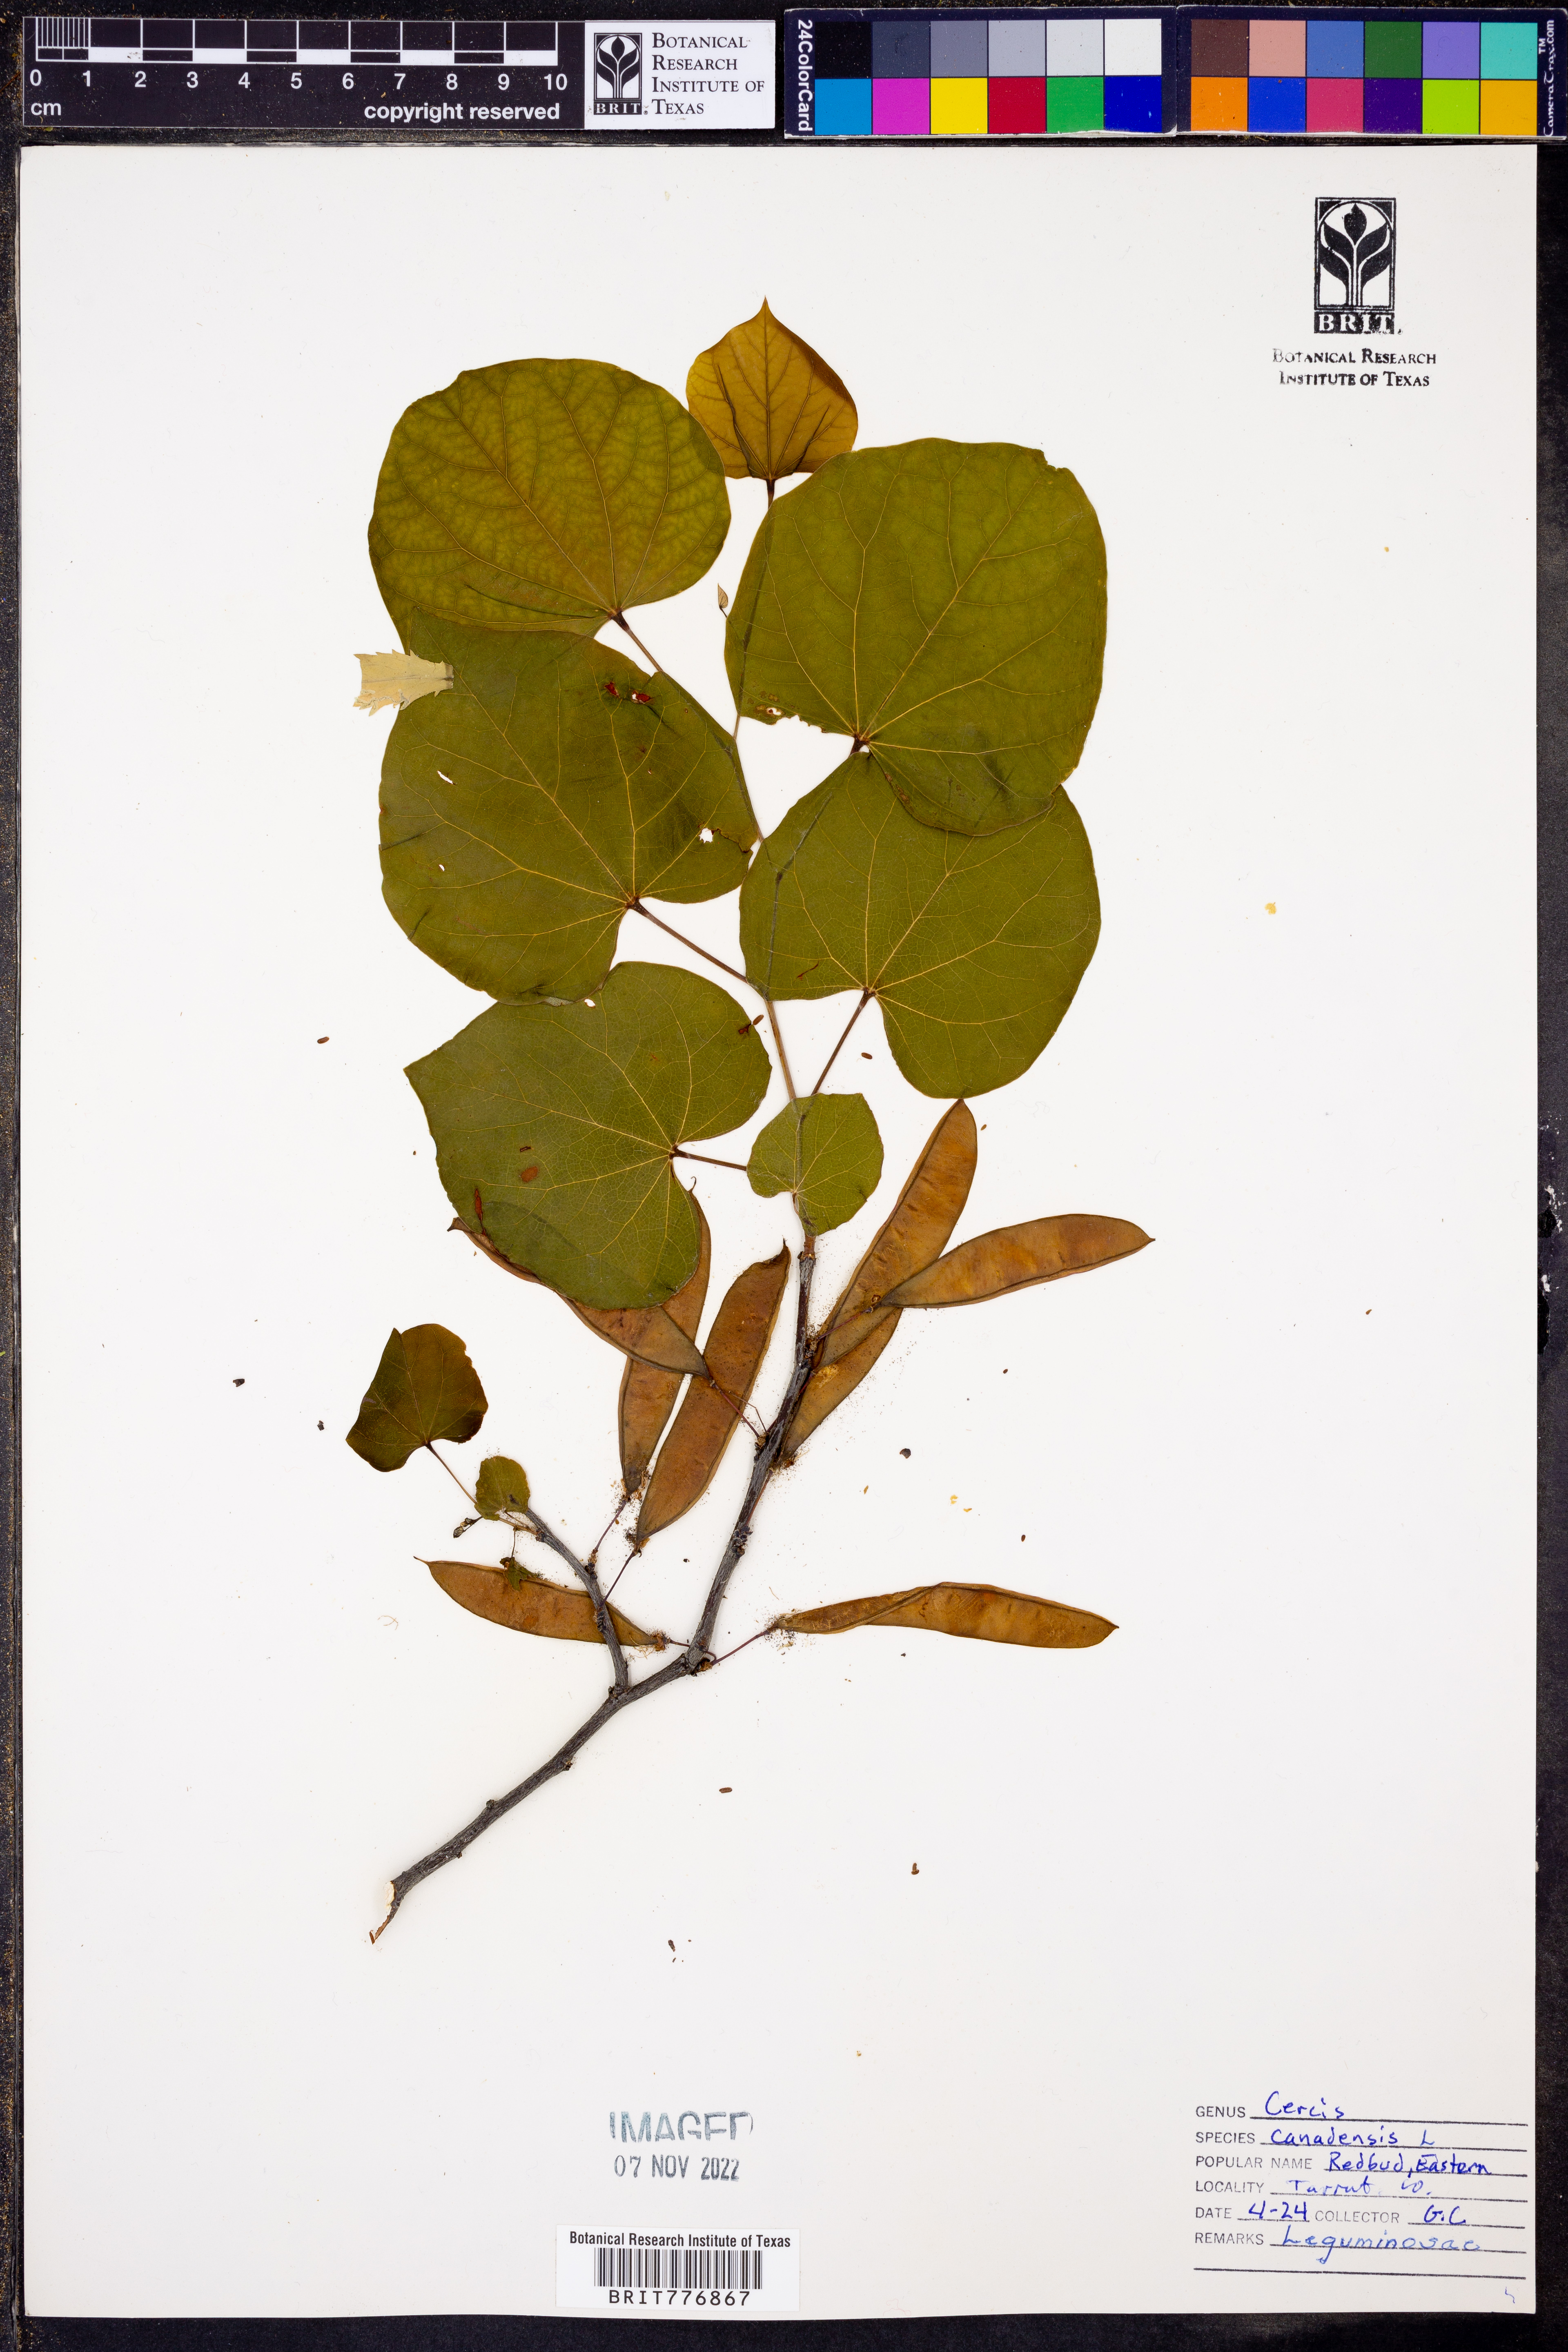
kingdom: Plantae
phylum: Tracheophyta
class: Magnoliopsida
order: Fabales
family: Fabaceae
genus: Cercis
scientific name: Cercis canadensis
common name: Eastern redbud
